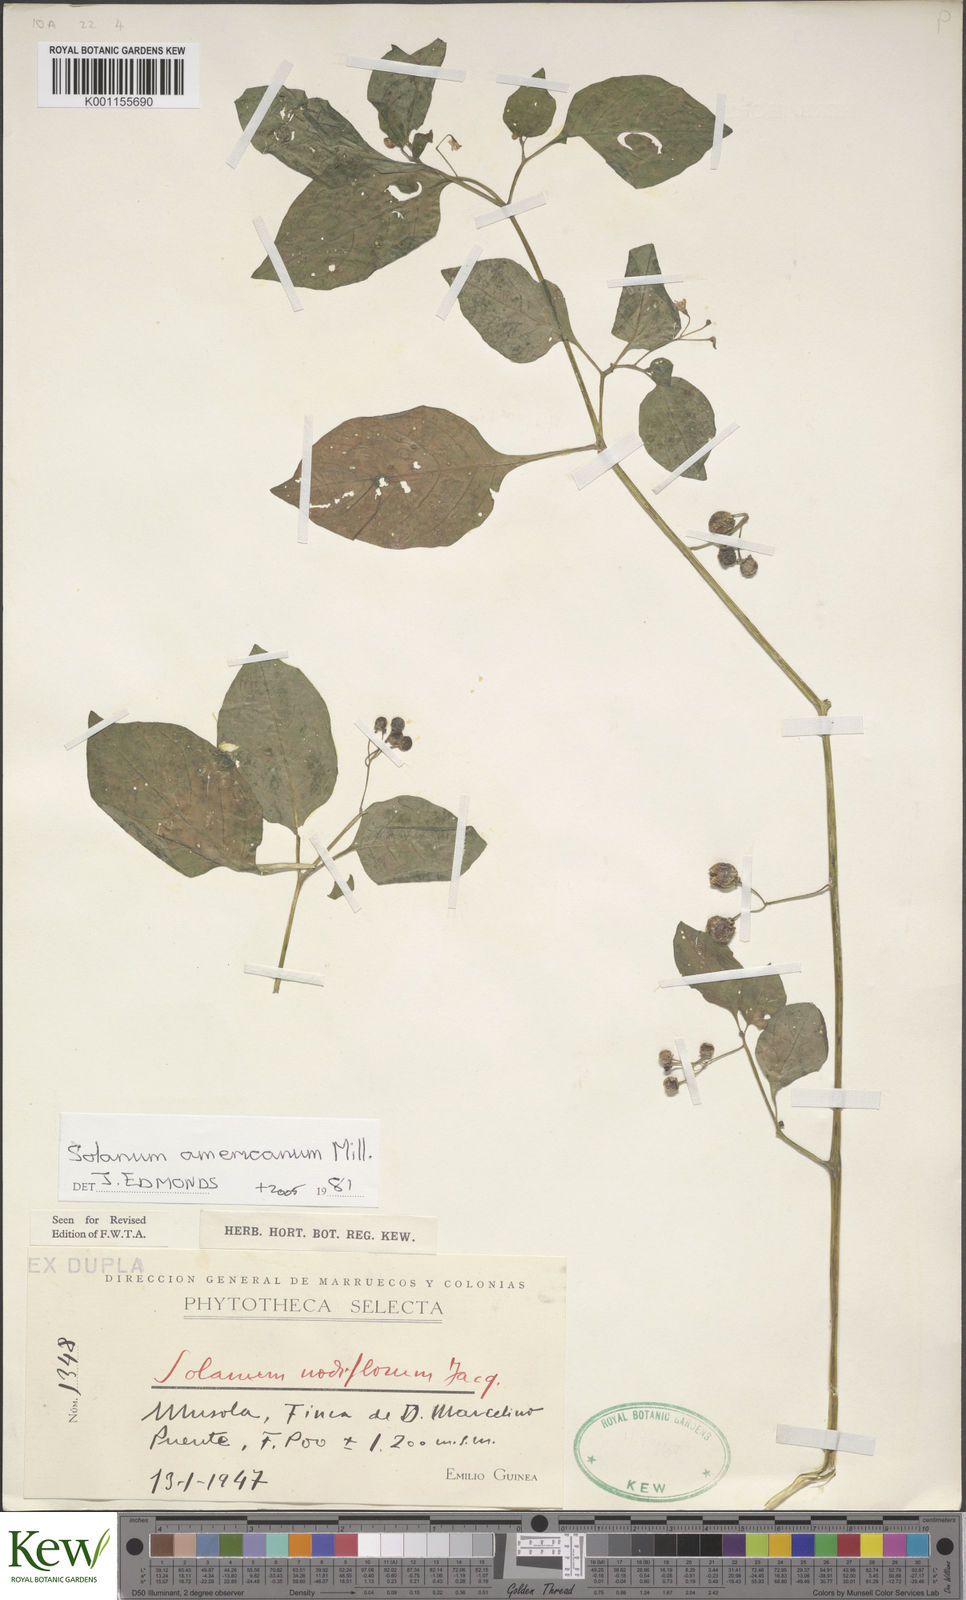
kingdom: Plantae
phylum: Tracheophyta
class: Magnoliopsida
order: Solanales
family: Solanaceae
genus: Solanum
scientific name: Solanum scabrum
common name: Garden-huckleberry
